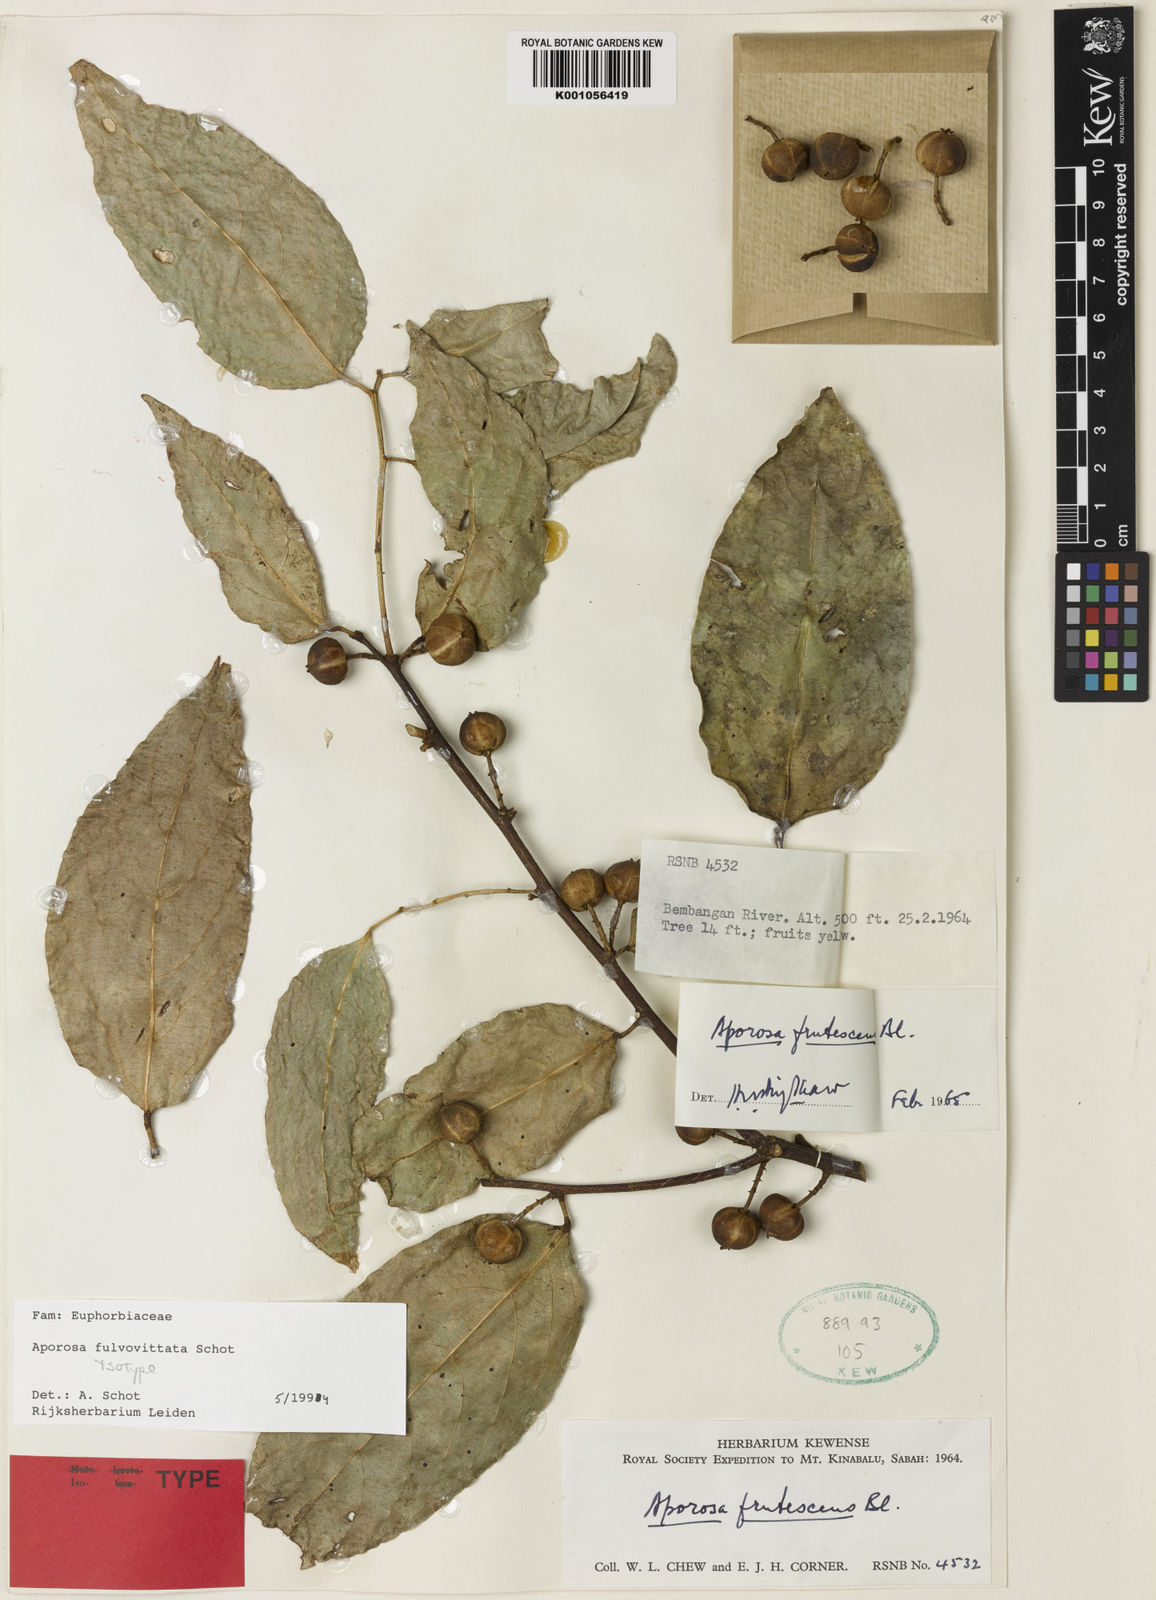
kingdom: Plantae
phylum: Tracheophyta
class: Magnoliopsida
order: Malpighiales
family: Phyllanthaceae
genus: Aporosa
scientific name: Aporosa fulvovittata
